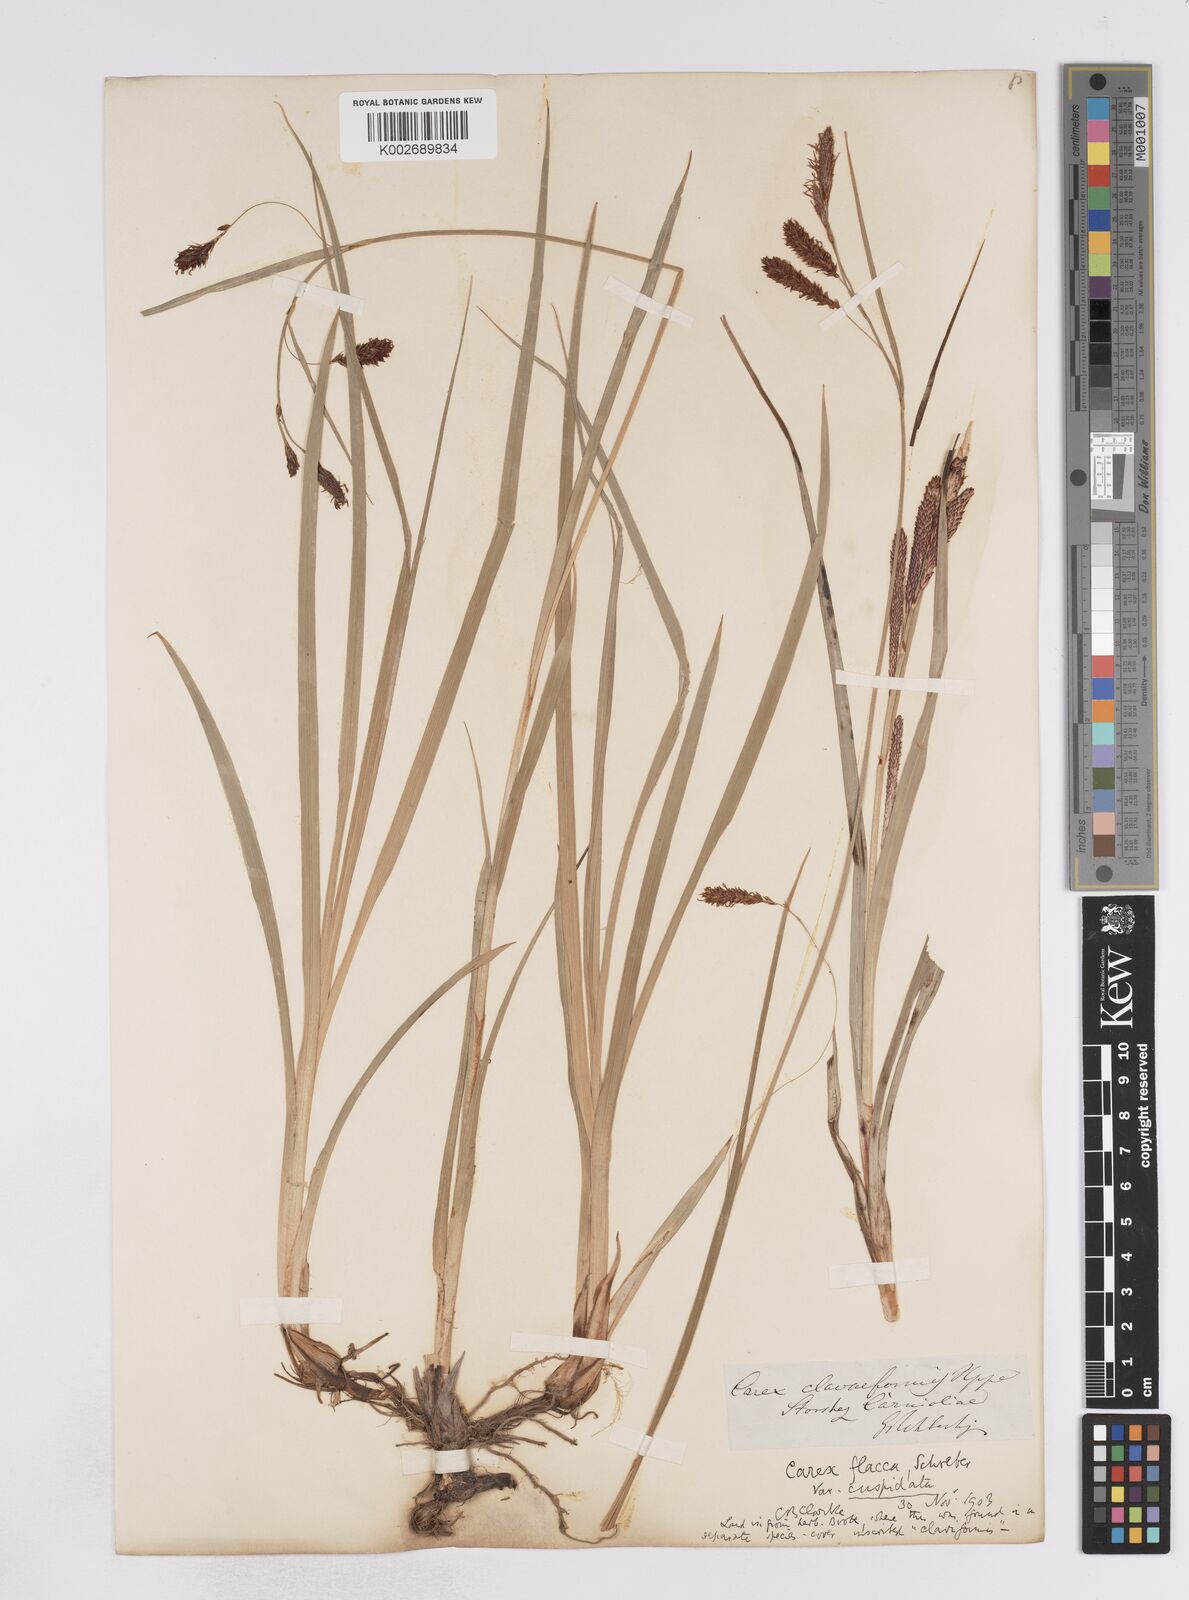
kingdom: Plantae
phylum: Tracheophyta
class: Liliopsida
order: Poales
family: Cyperaceae
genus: Carex
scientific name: Carex flacca
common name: Glaucous sedge
